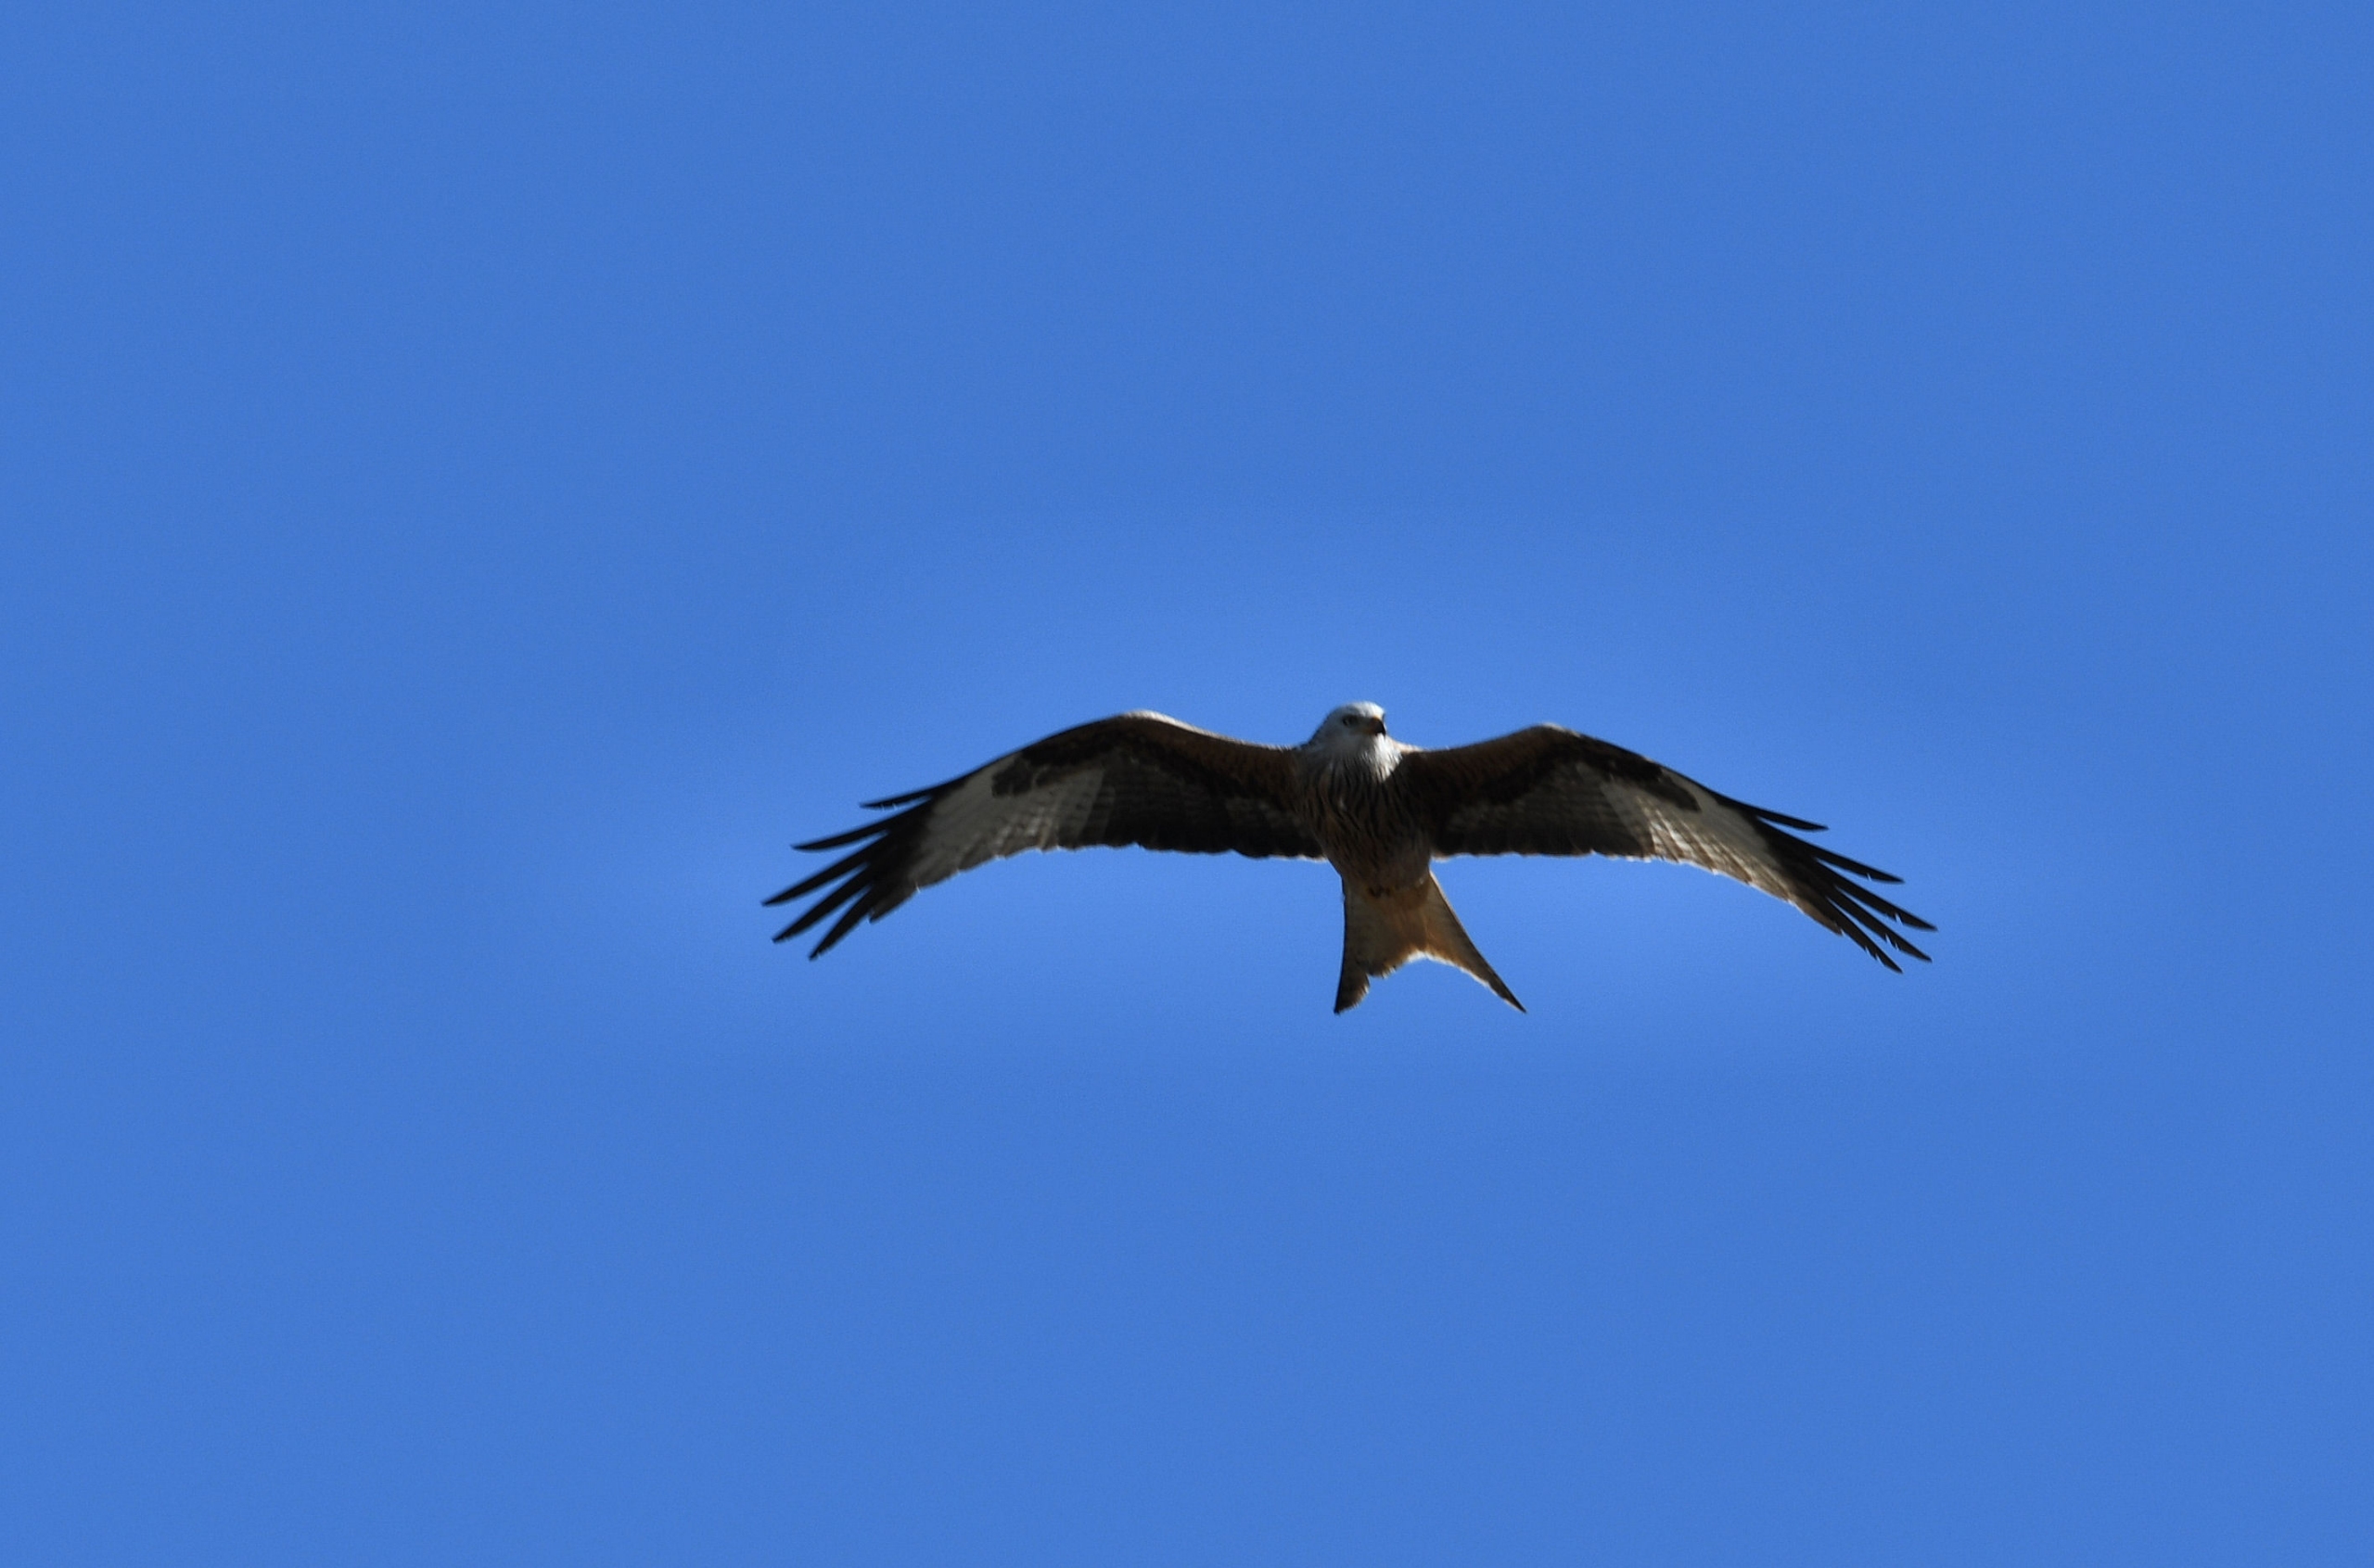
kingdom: Animalia
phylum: Chordata
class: Aves
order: Accipitriformes
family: Accipitridae
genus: Milvus
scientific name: Milvus milvus
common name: Rød glente
